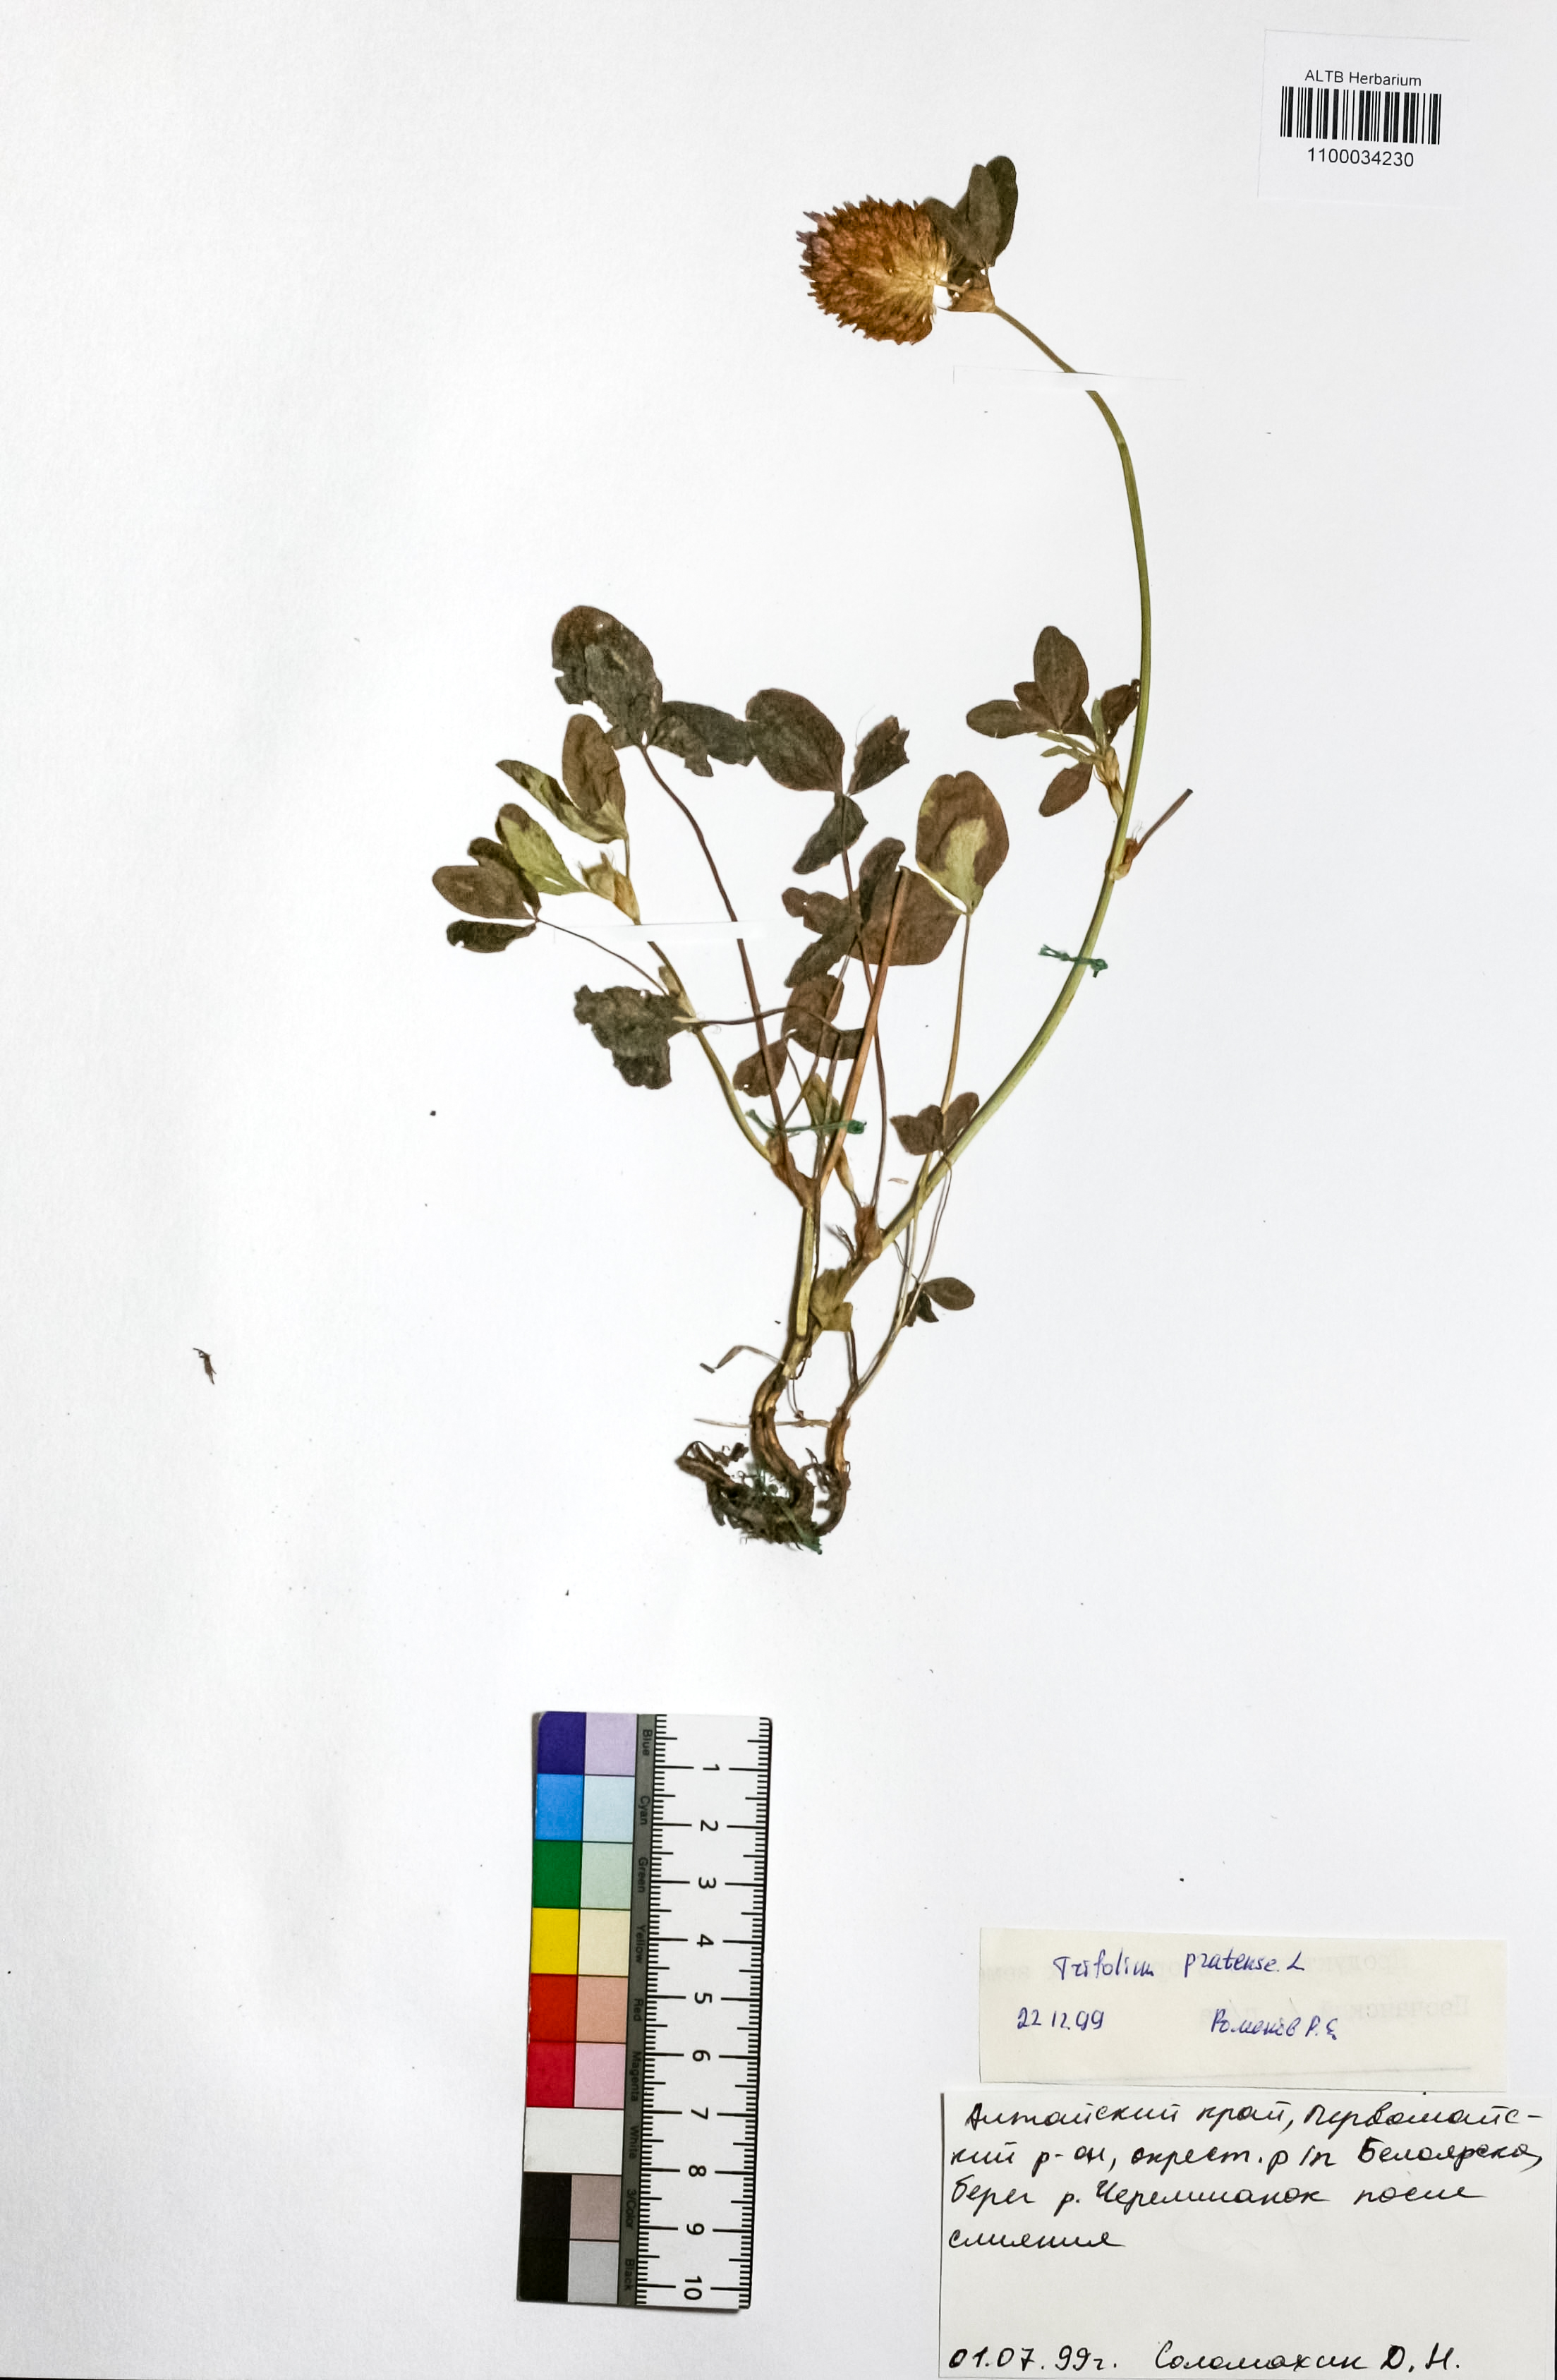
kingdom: Plantae
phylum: Tracheophyta
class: Magnoliopsida
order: Fabales
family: Fabaceae
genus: Trifolium
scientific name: Trifolium pratense
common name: Red clover
